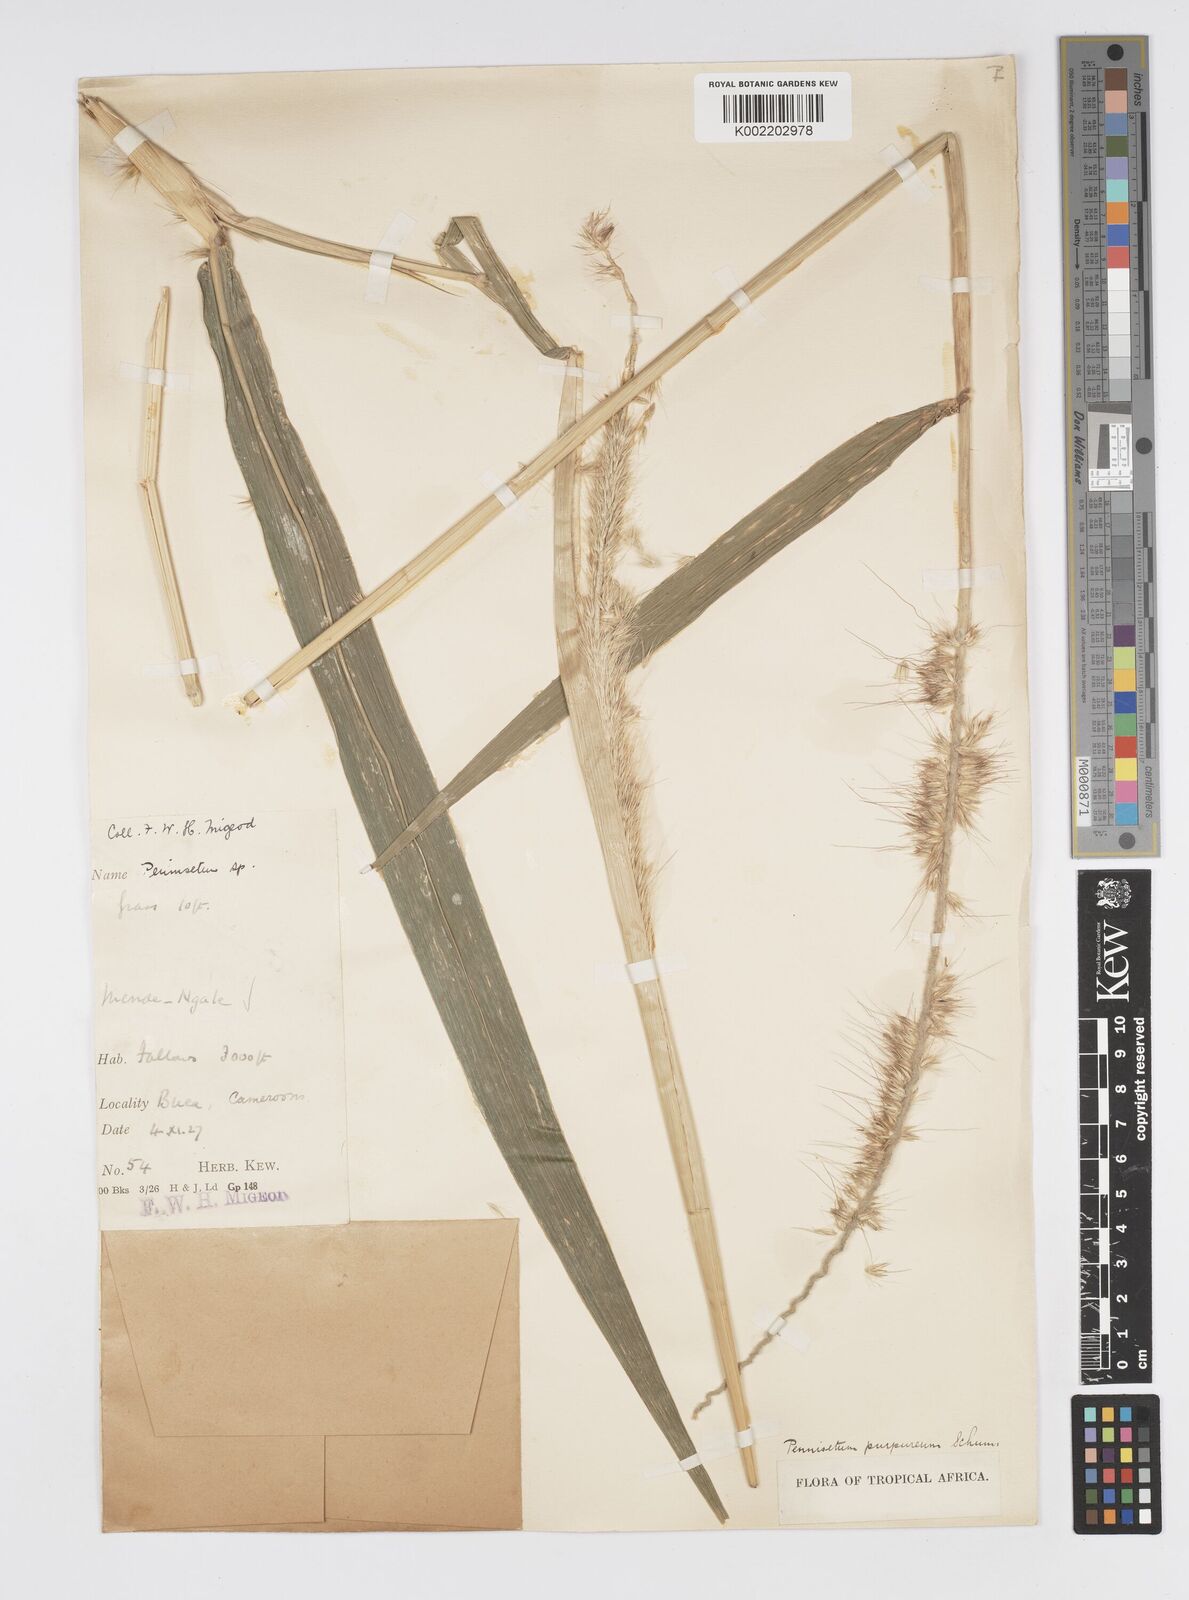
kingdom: Plantae
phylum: Tracheophyta
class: Liliopsida
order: Poales
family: Poaceae
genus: Cenchrus
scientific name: Cenchrus purpureus
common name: Elephant grass
